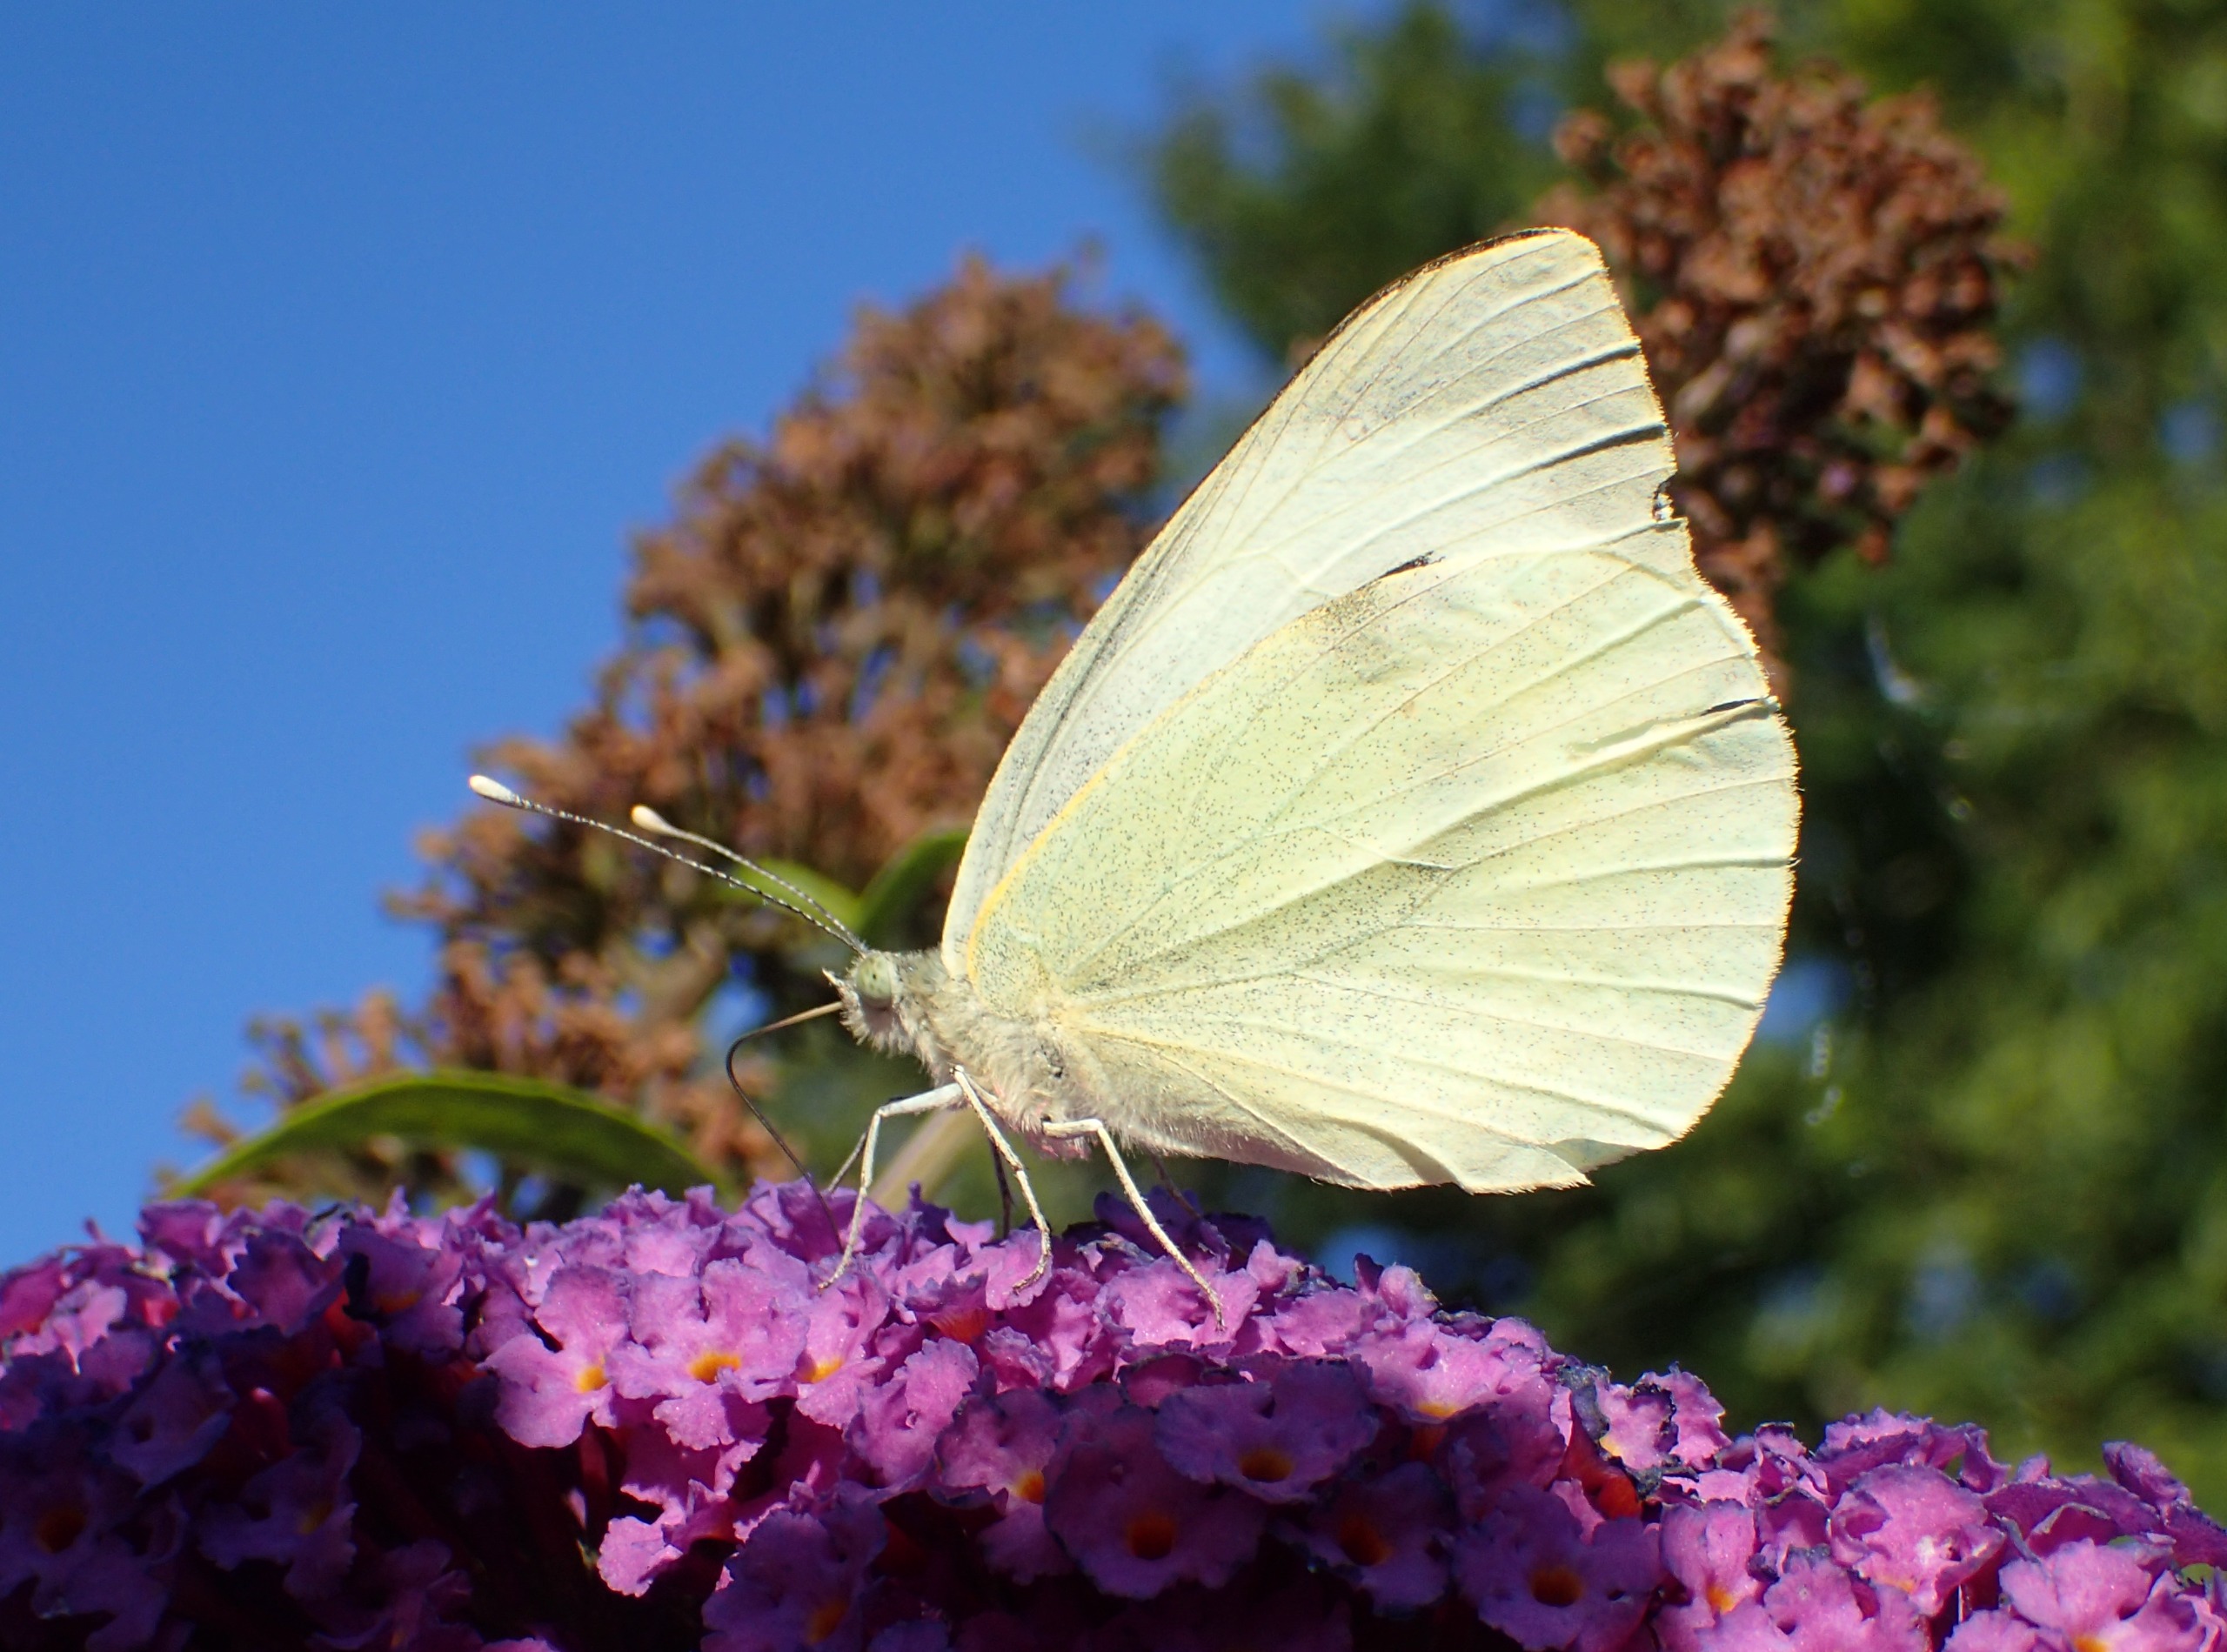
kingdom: Animalia
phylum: Arthropoda
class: Insecta
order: Lepidoptera
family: Pieridae
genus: Pieris
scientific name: Pieris brassicae
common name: Stor kålsommerfugl
